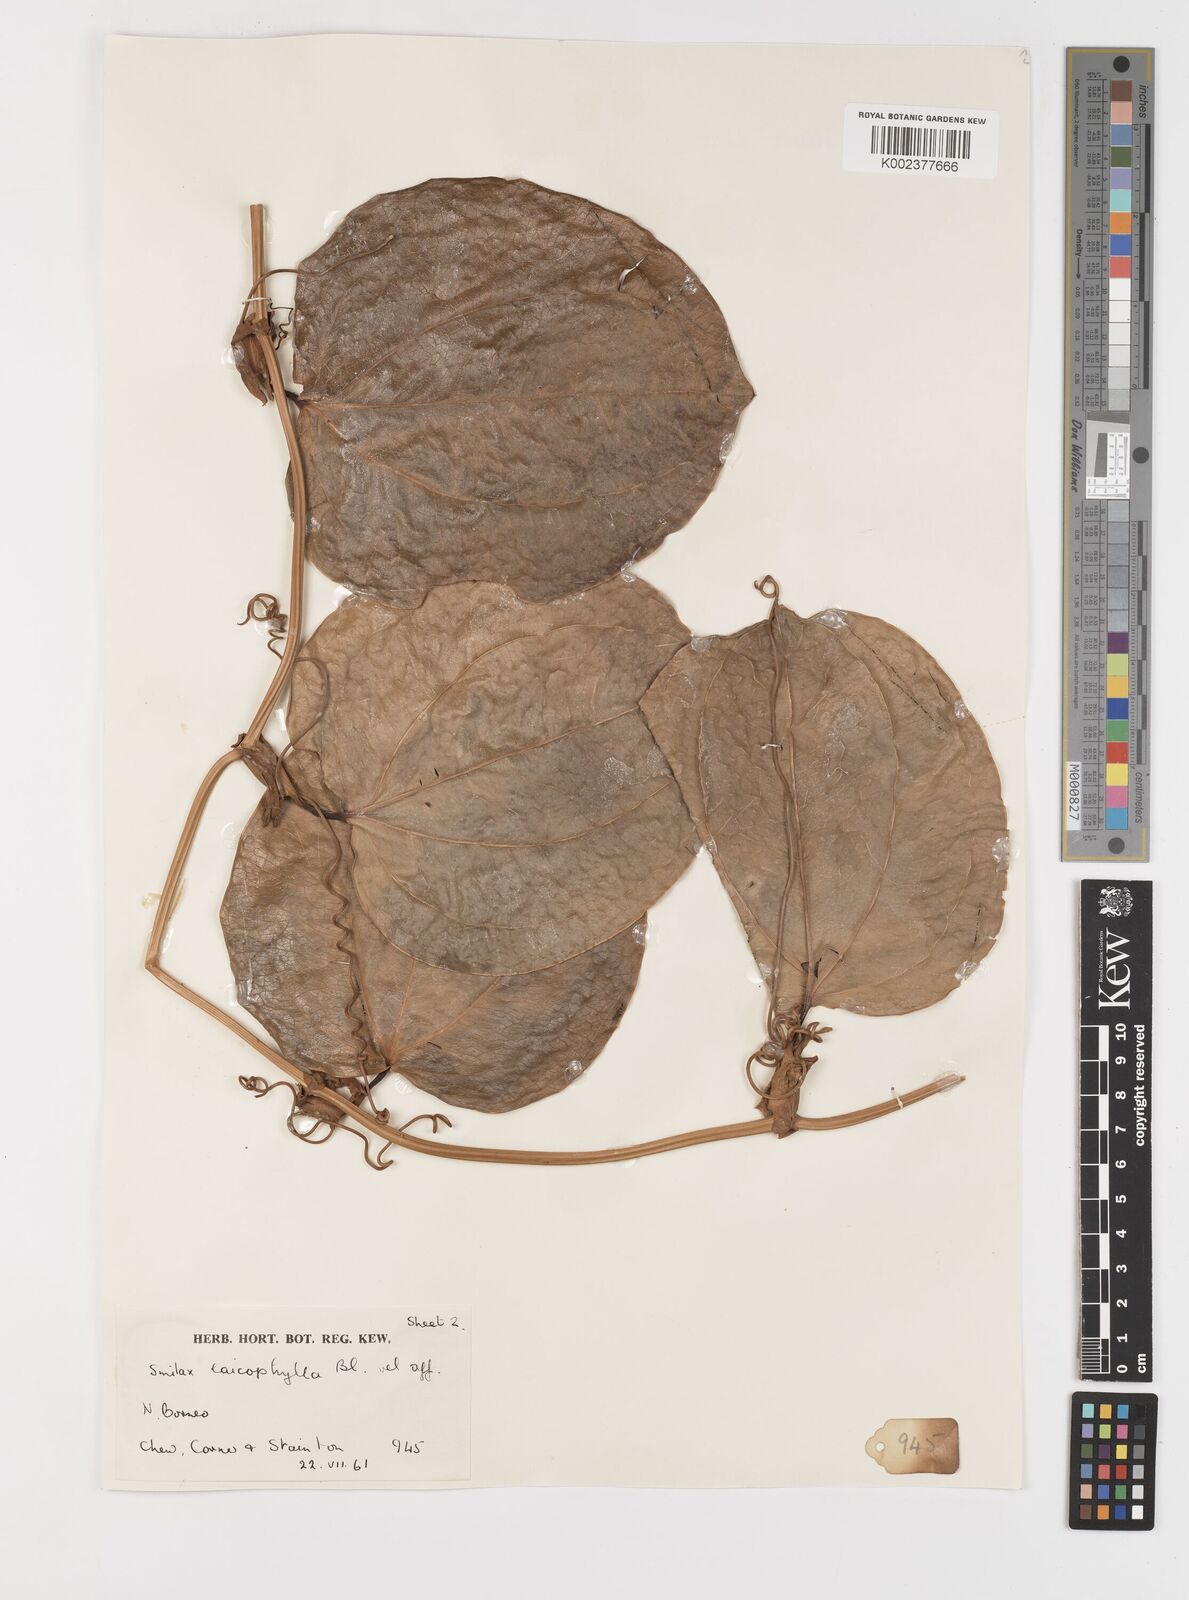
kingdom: Plantae
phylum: Tracheophyta
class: Liliopsida
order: Liliales
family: Smilacaceae
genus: Smilax
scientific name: Smilax leucophylla
